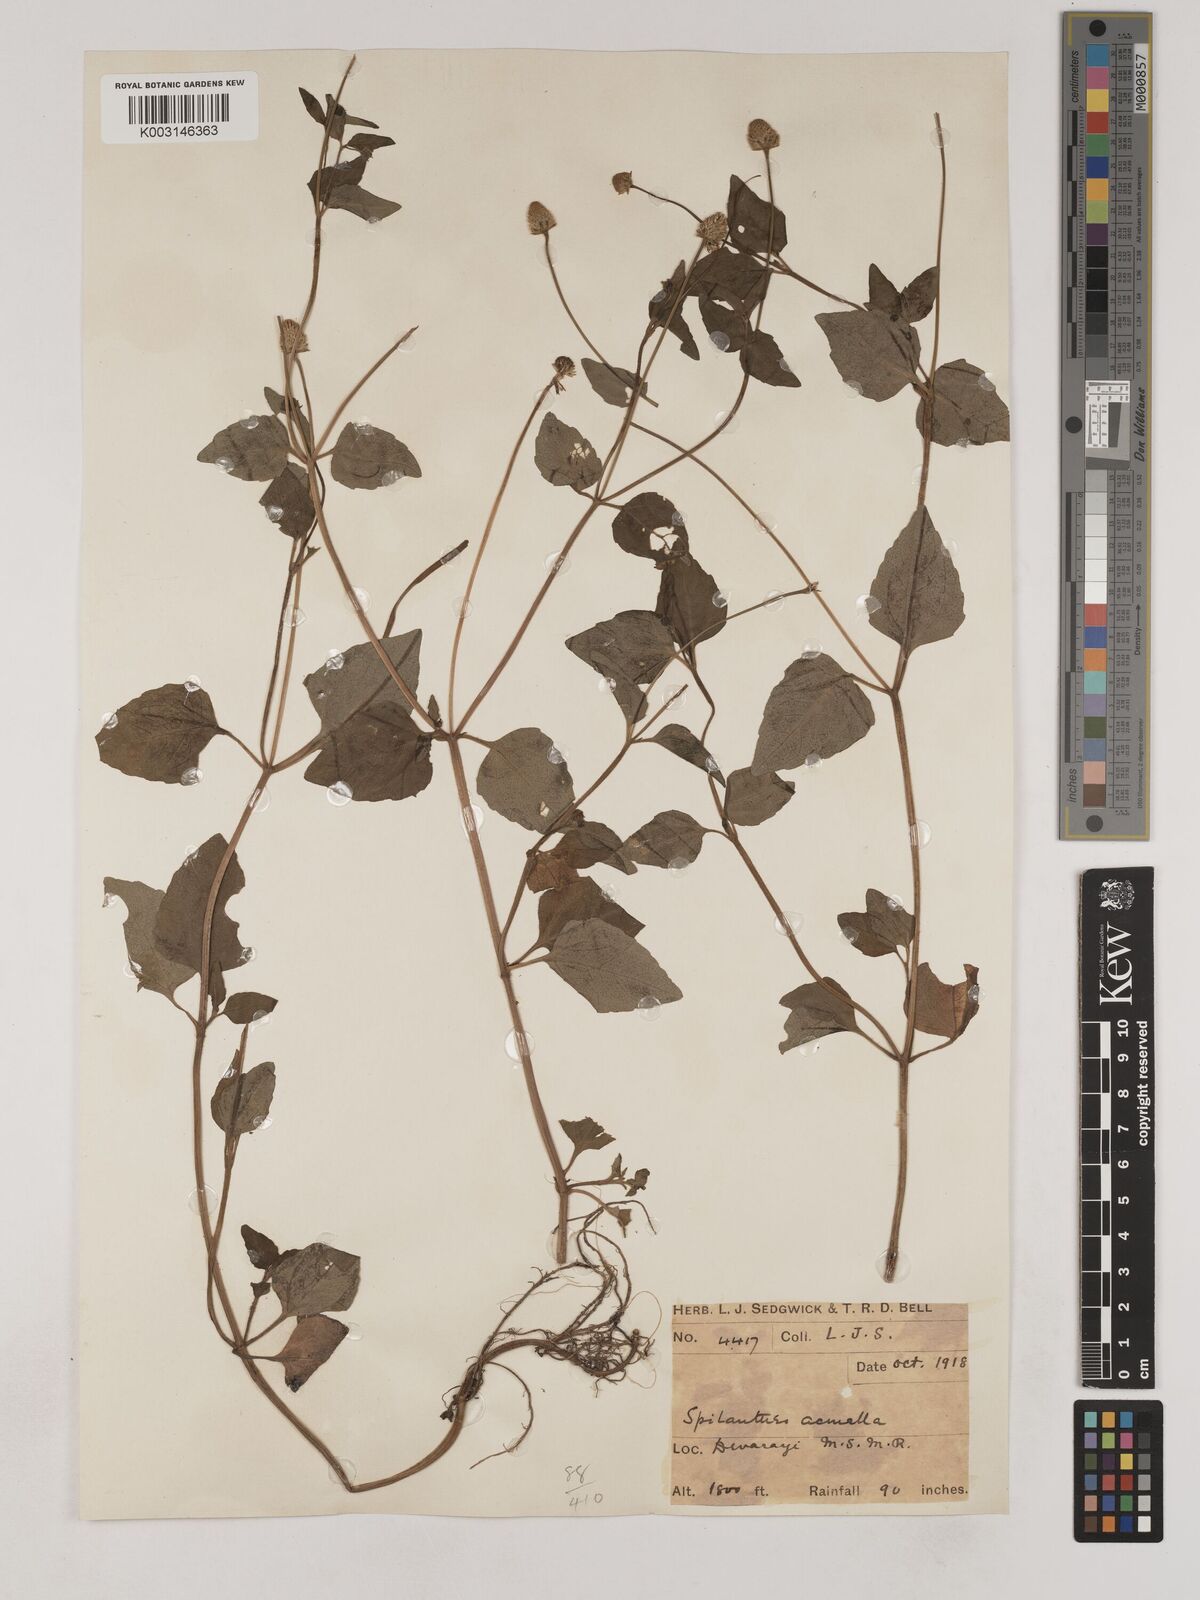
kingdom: Plantae
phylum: Tracheophyta
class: Magnoliopsida
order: Asterales
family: Asteraceae
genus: Acmella
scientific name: Acmella paniculata
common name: Panicled spot flower
